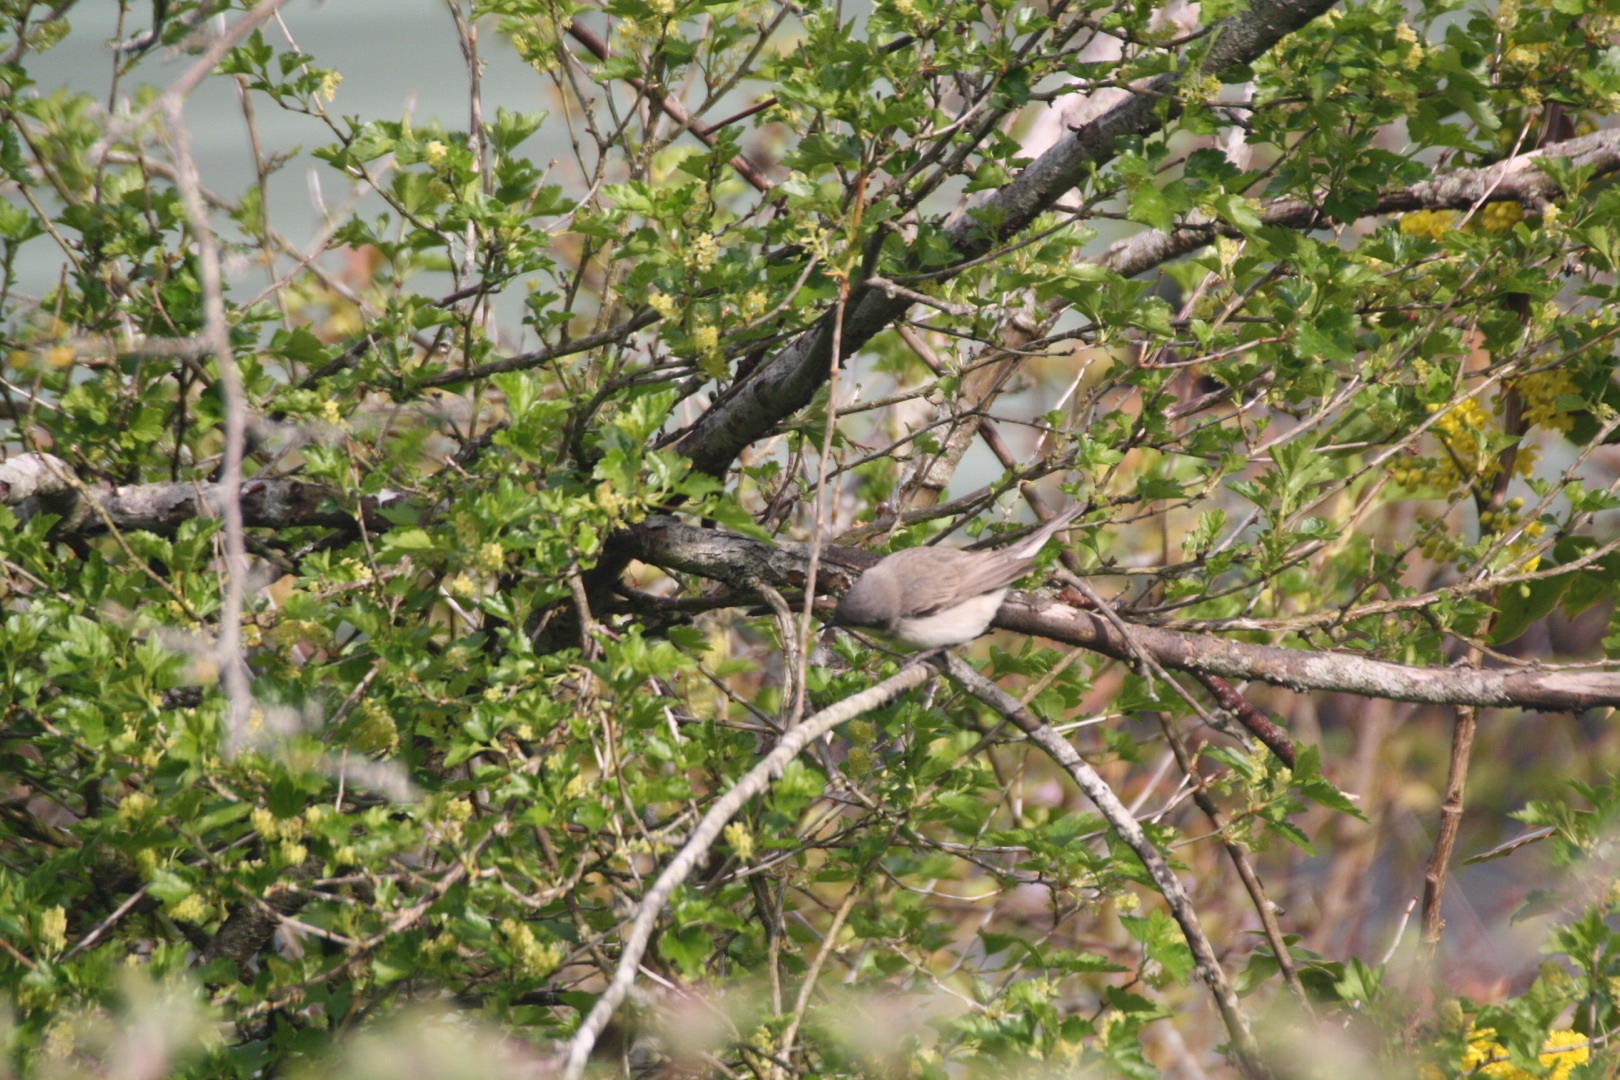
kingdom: Animalia
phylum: Chordata
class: Aves
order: Passeriformes
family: Sylviidae
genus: Sylvia
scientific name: Sylvia curruca
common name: Gærdesanger
